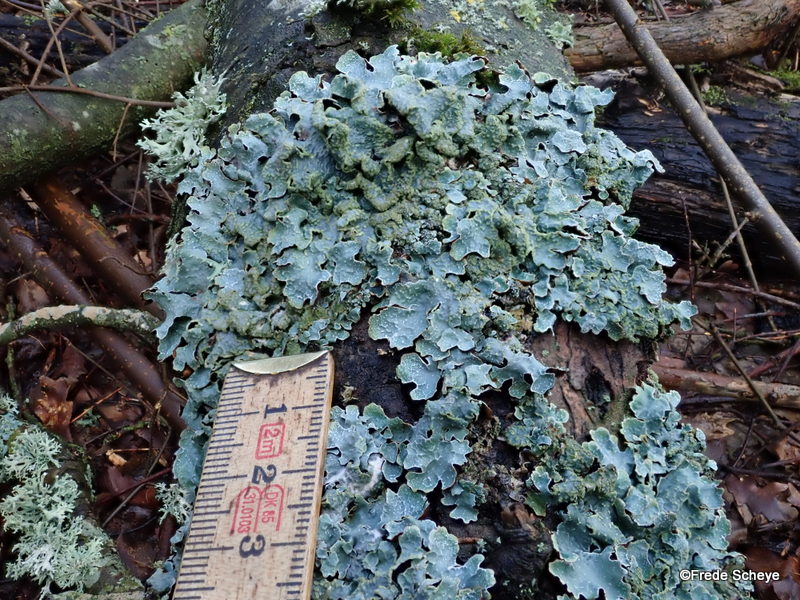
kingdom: Fungi
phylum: Ascomycota
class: Lecanoromycetes
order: Lecanorales
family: Parmeliaceae
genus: Parmelia
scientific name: Parmelia sulcata
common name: rynket skållav
